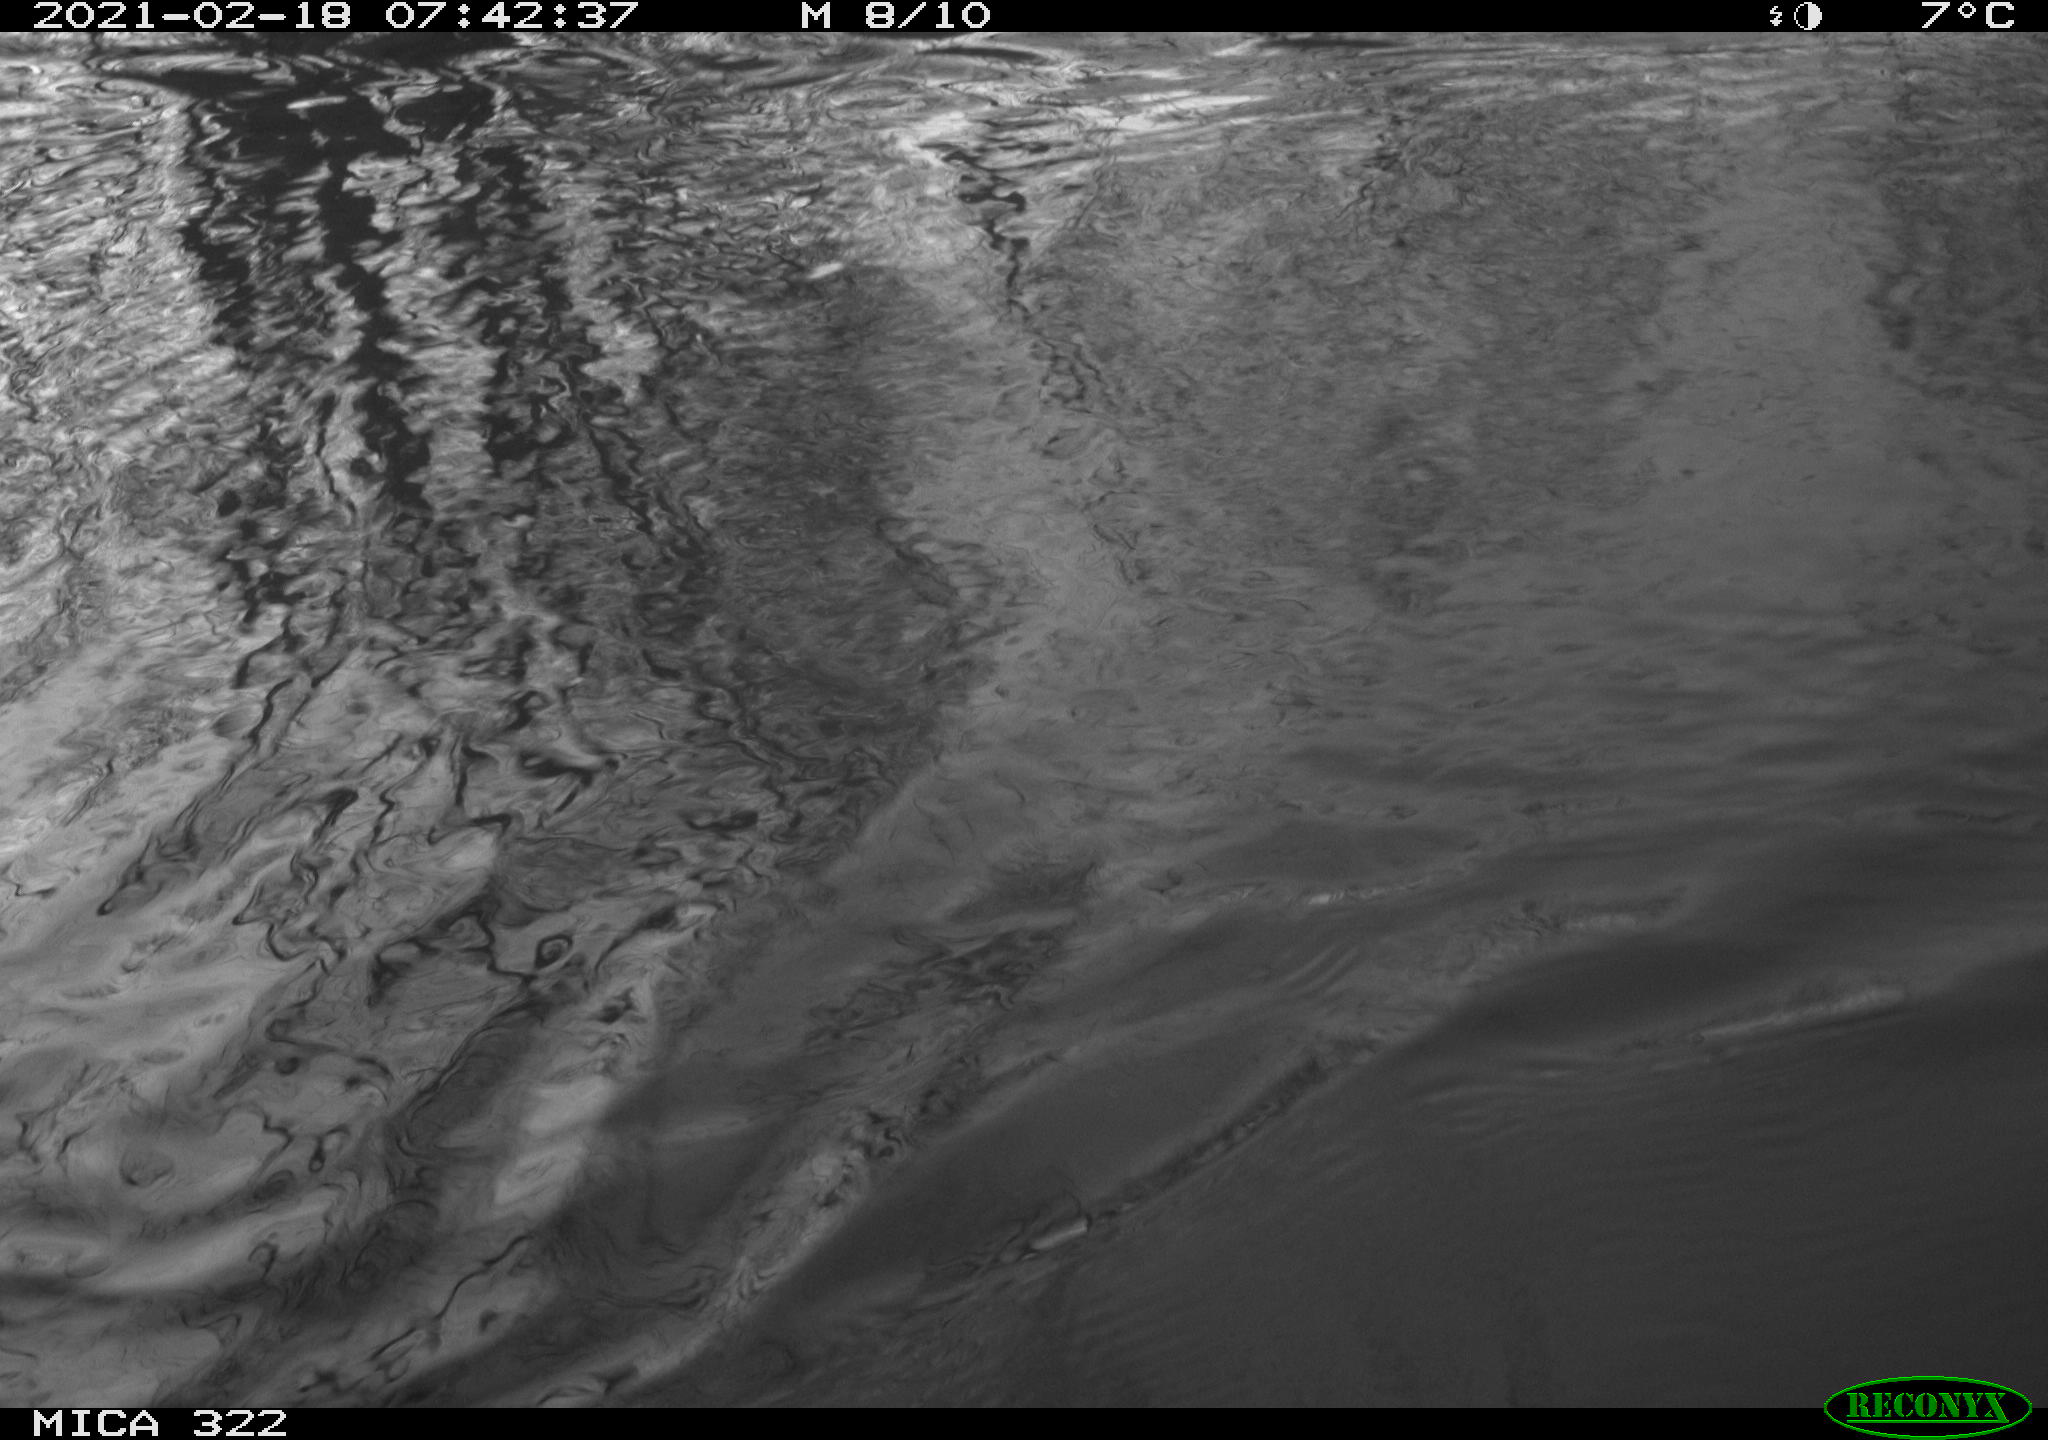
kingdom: Animalia
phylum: Chordata
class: Aves
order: Anseriformes
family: Anatidae
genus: Mareca
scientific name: Mareca strepera
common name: Gadwall
